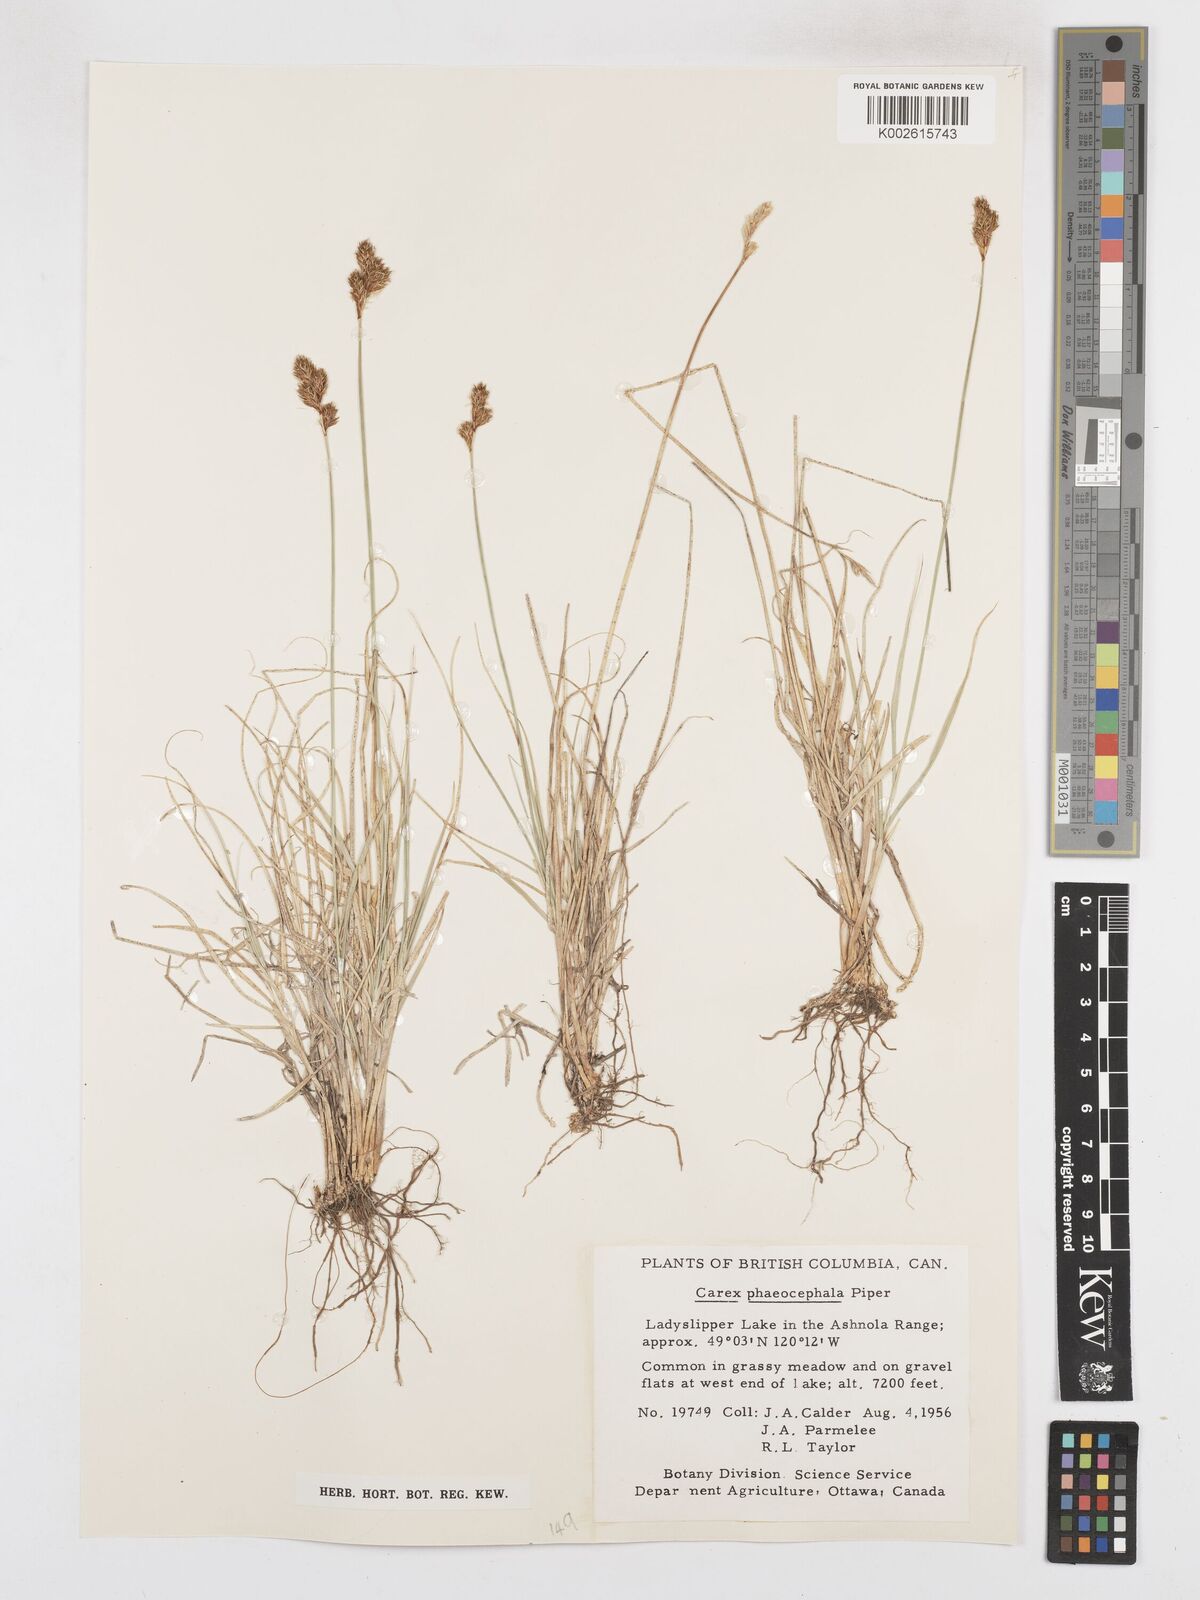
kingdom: Plantae
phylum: Tracheophyta
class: Liliopsida
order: Poales
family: Cyperaceae
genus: Carex
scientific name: Carex phaeocephala
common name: Brown-head sedge
